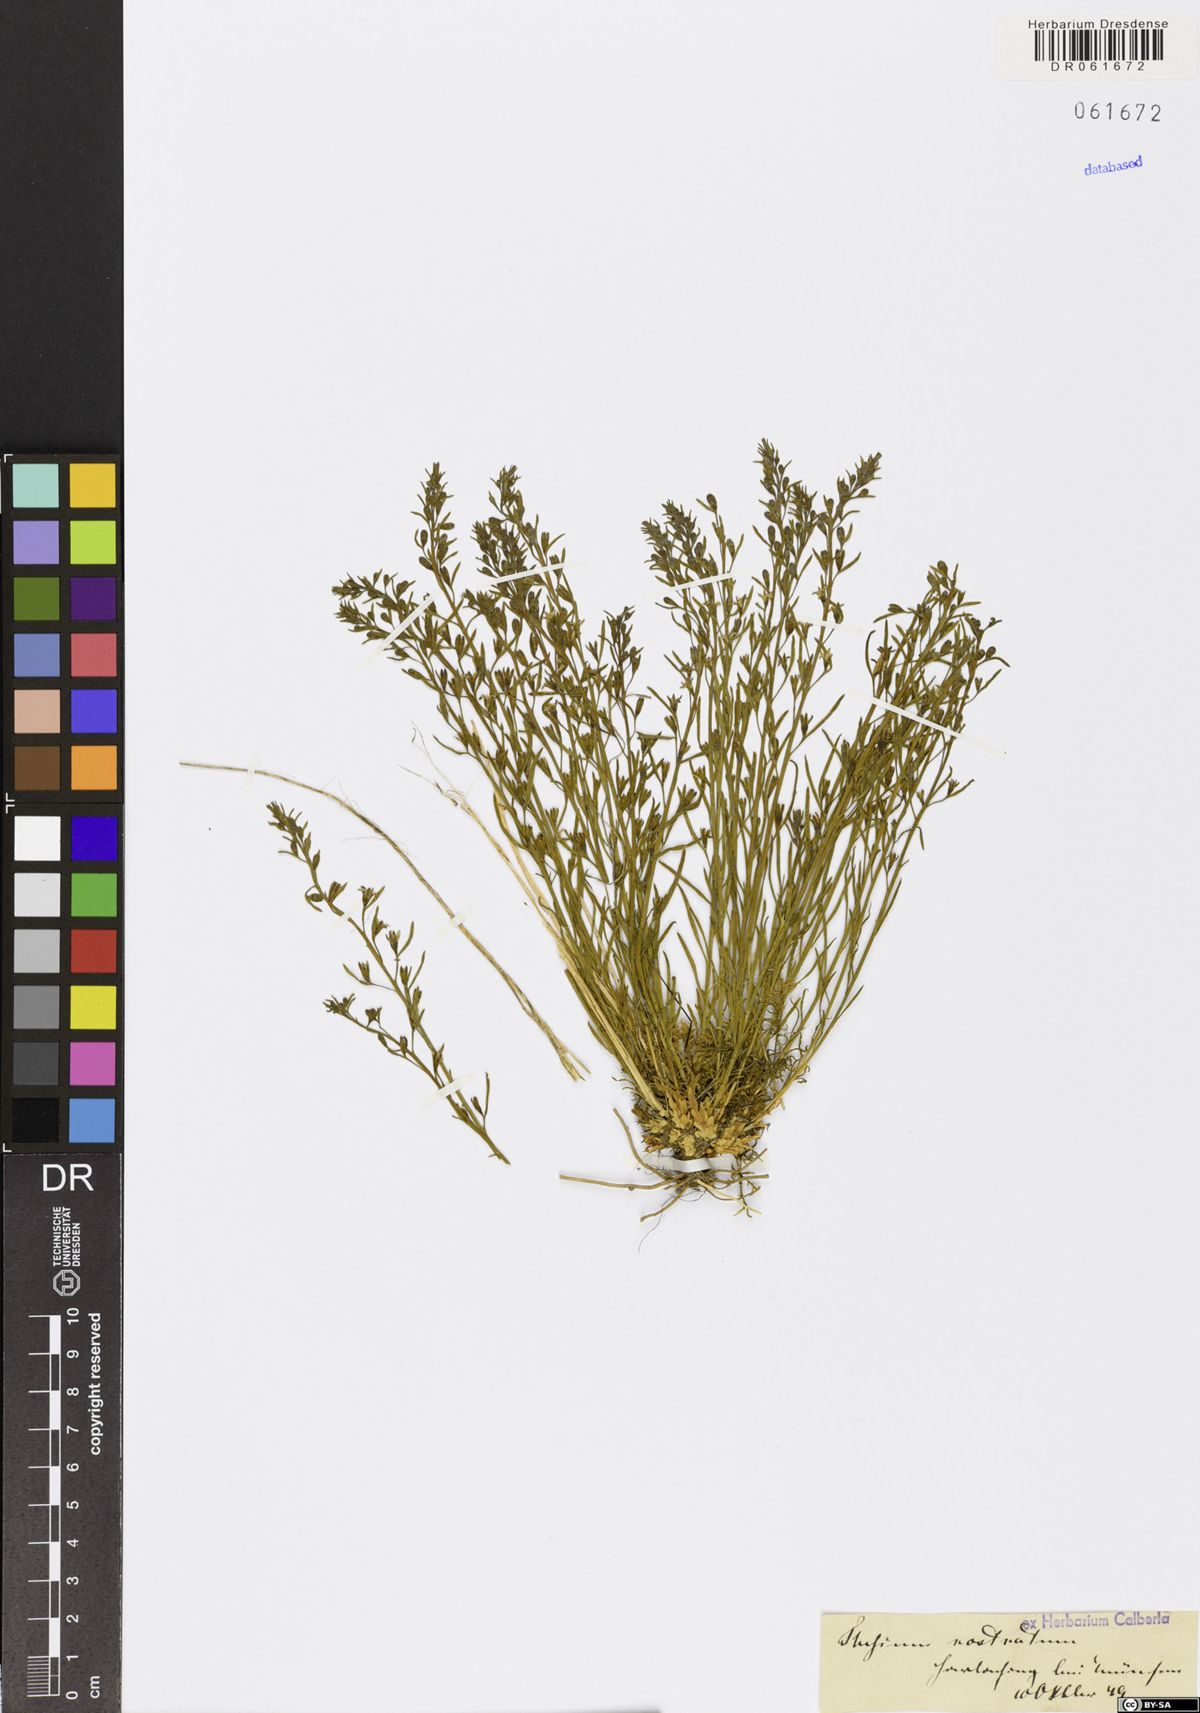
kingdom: Plantae
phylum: Tracheophyta
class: Magnoliopsida
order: Santalales
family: Thesiaceae
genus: Thesium
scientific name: Thesium rostratum
